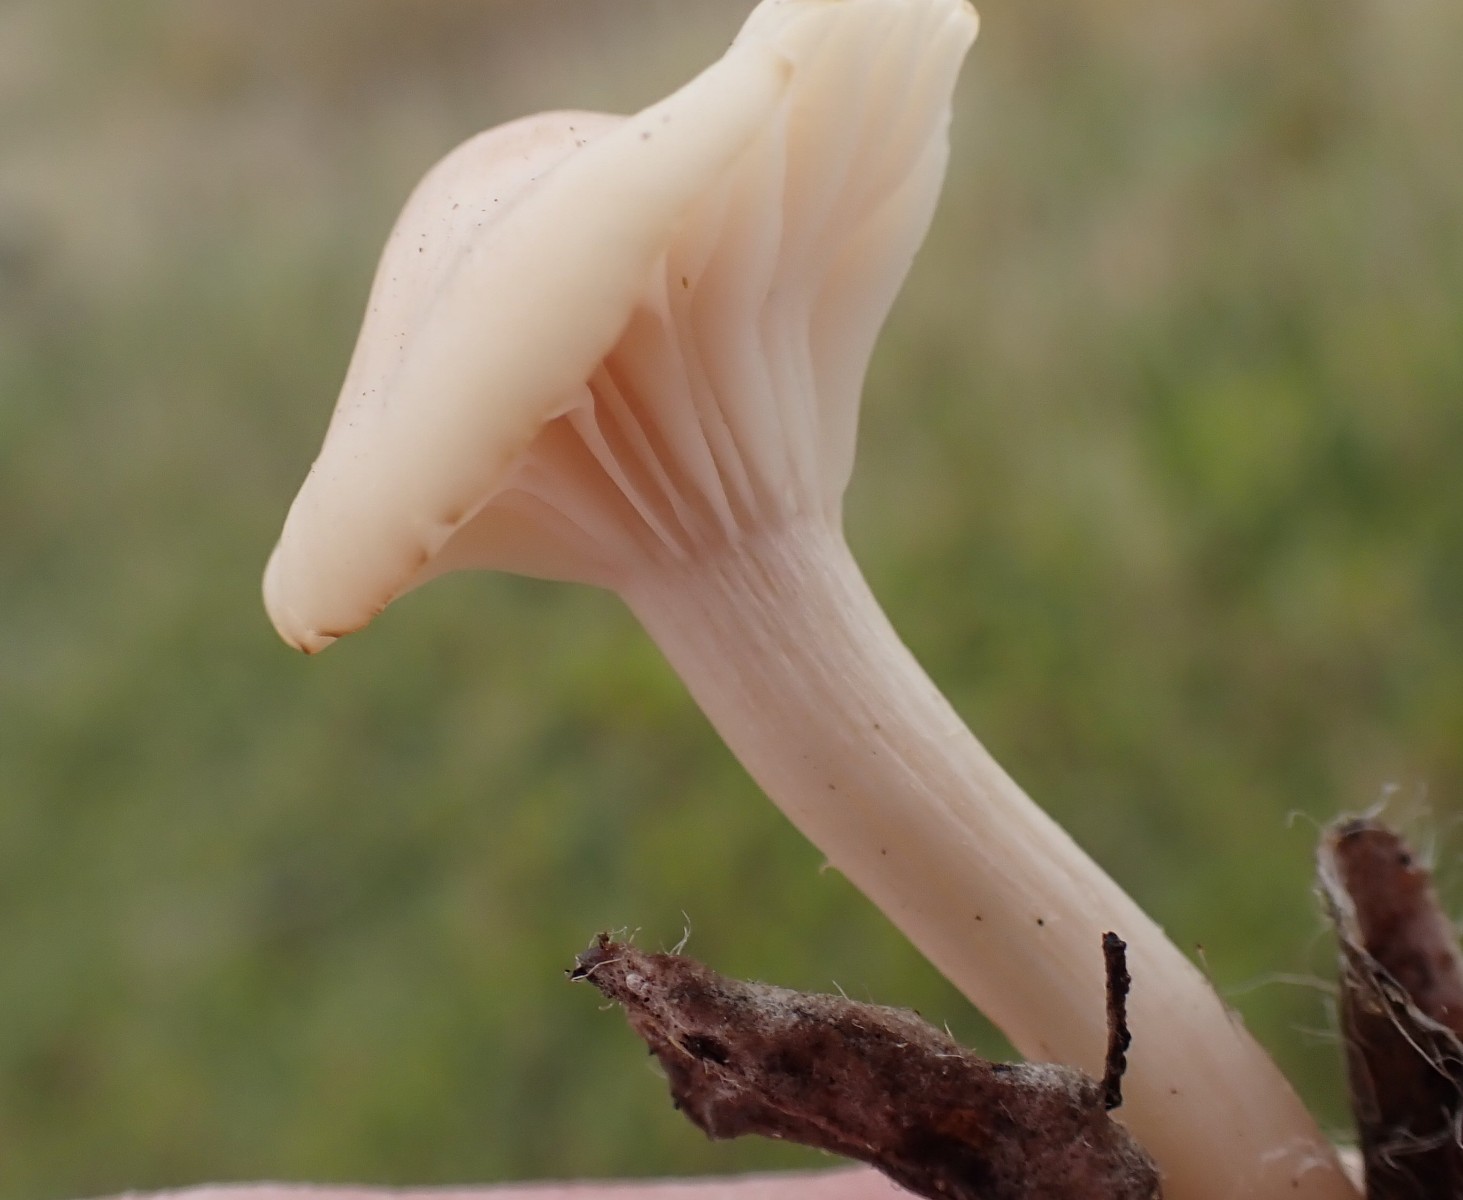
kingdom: Fungi
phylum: Basidiomycota
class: Agaricomycetes
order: Agaricales
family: Hygrophoraceae
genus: Cuphophyllus
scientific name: Cuphophyllus virgineus
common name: isabella-vokshat
